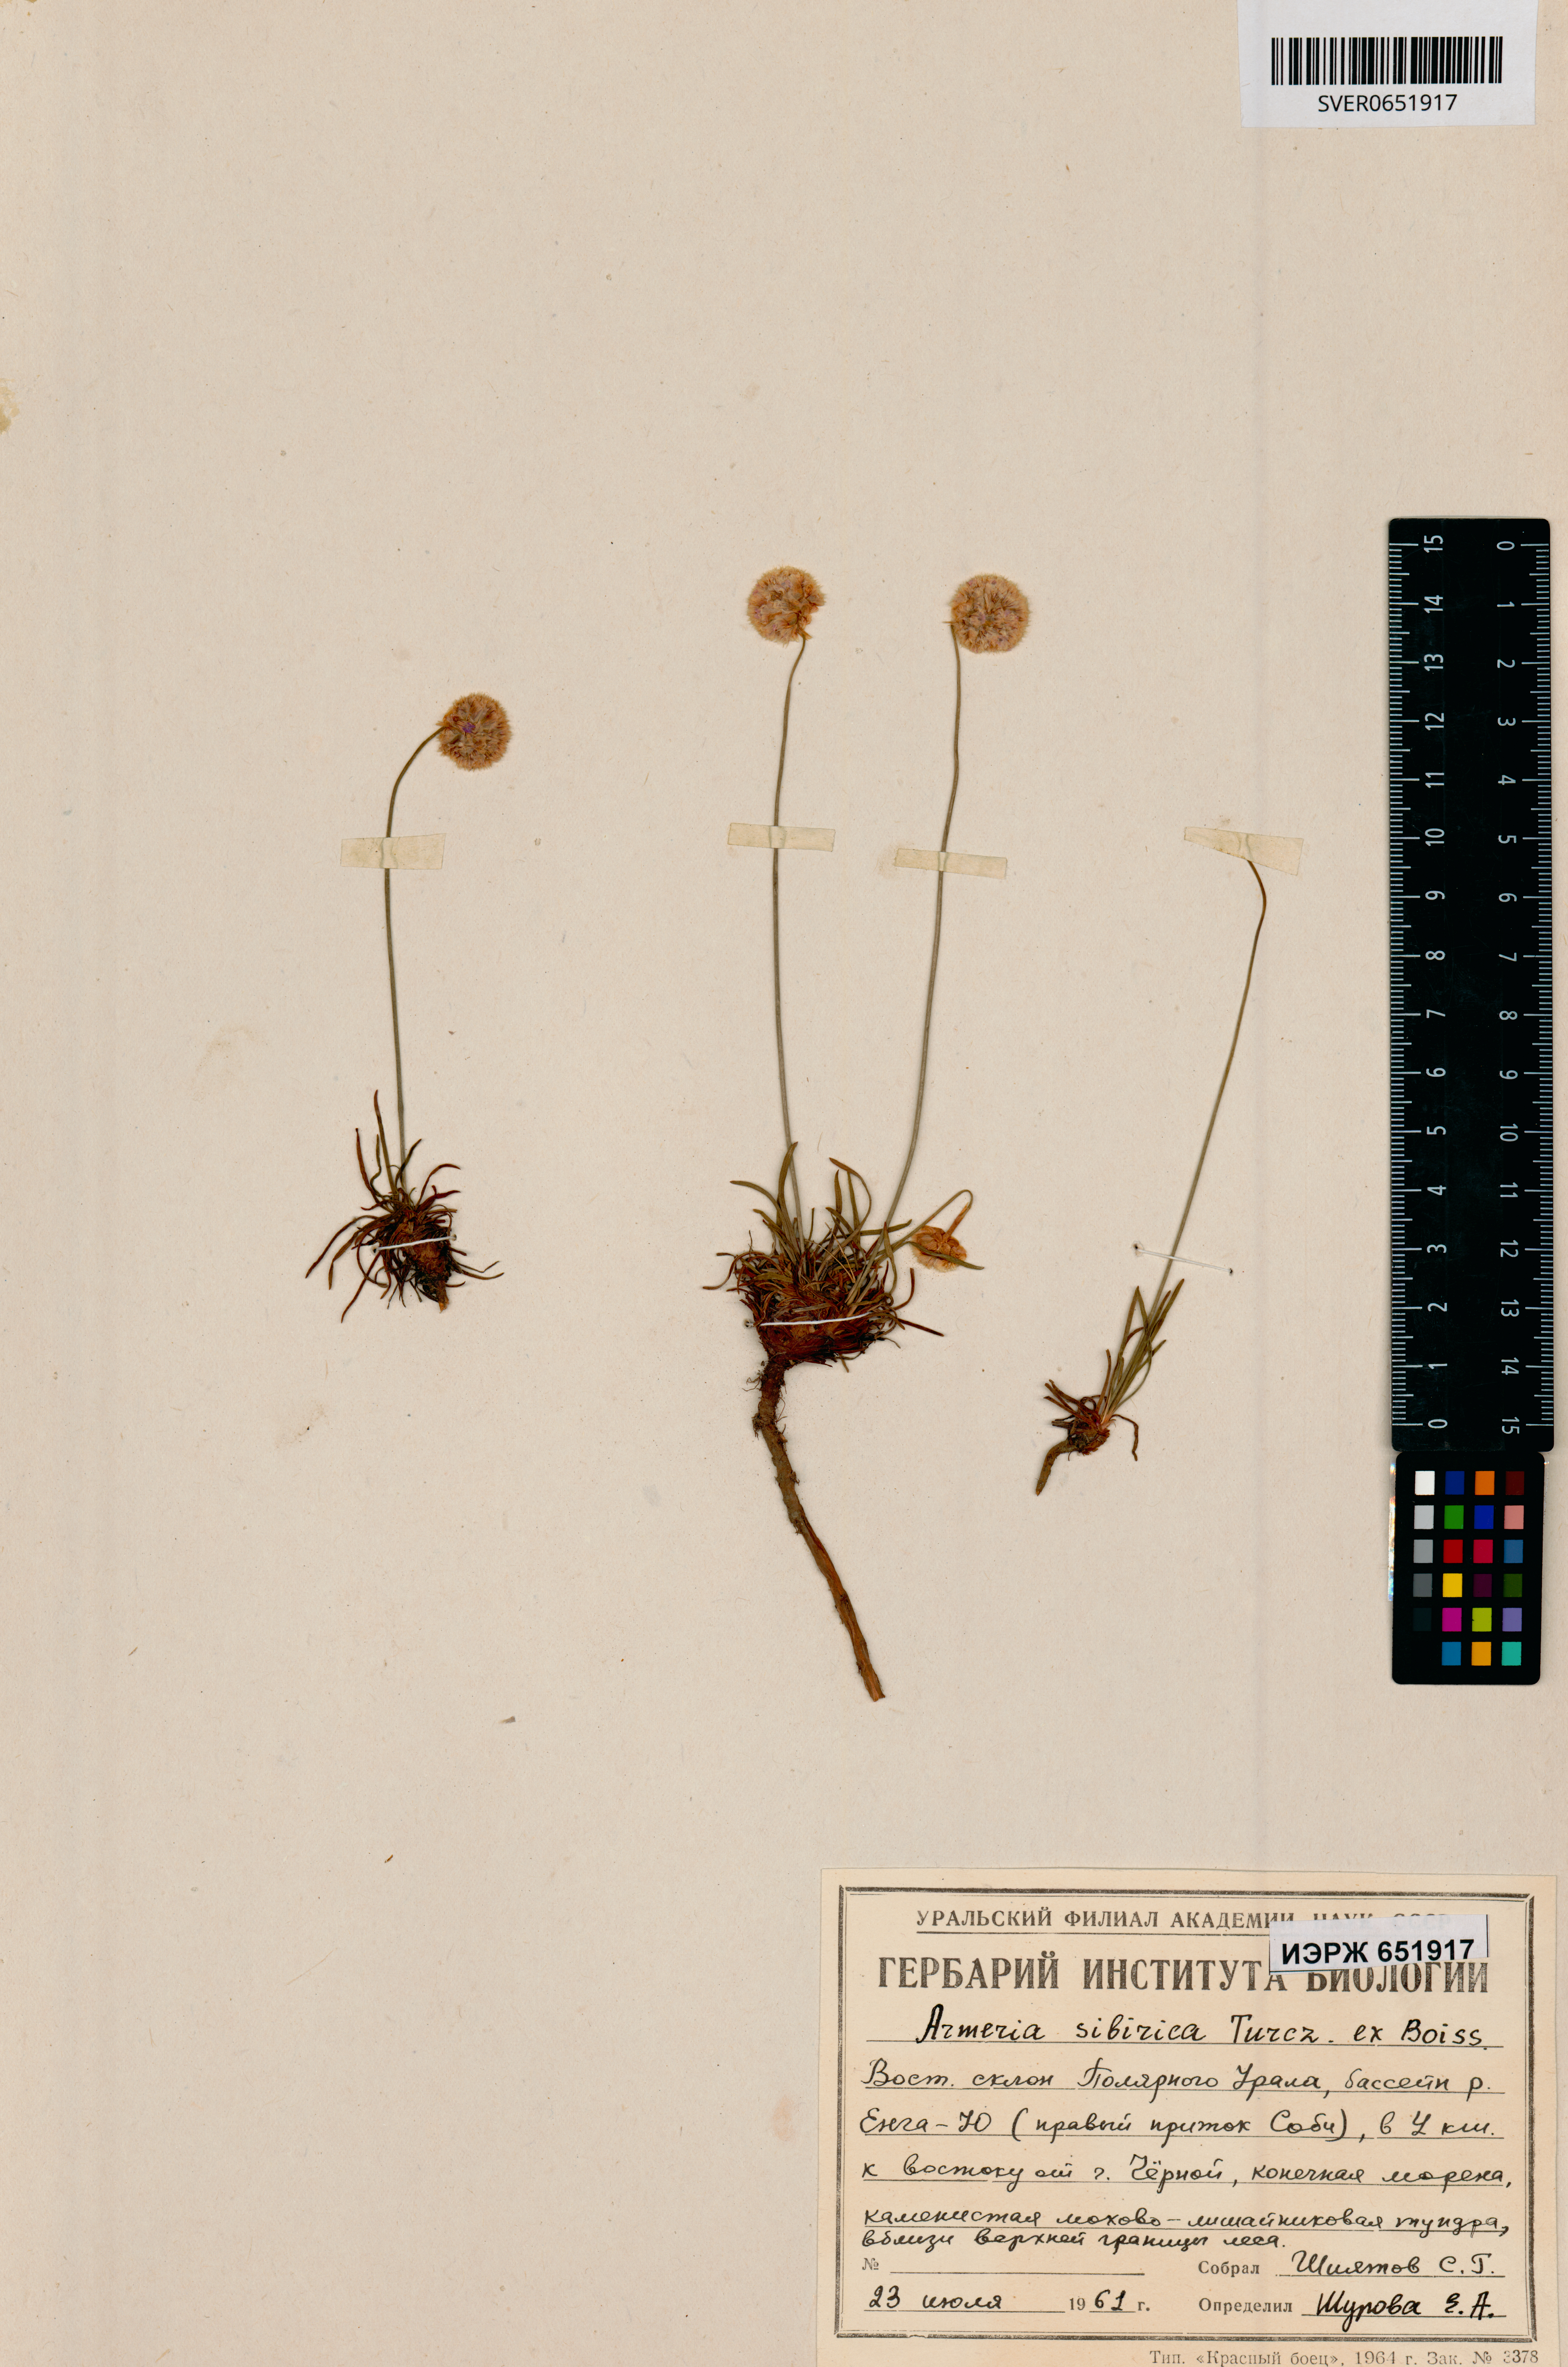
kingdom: Plantae
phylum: Tracheophyta
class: Magnoliopsida
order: Caryophyllales
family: Plumbaginaceae
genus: Armeria
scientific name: Armeria maritima
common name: Thrift
